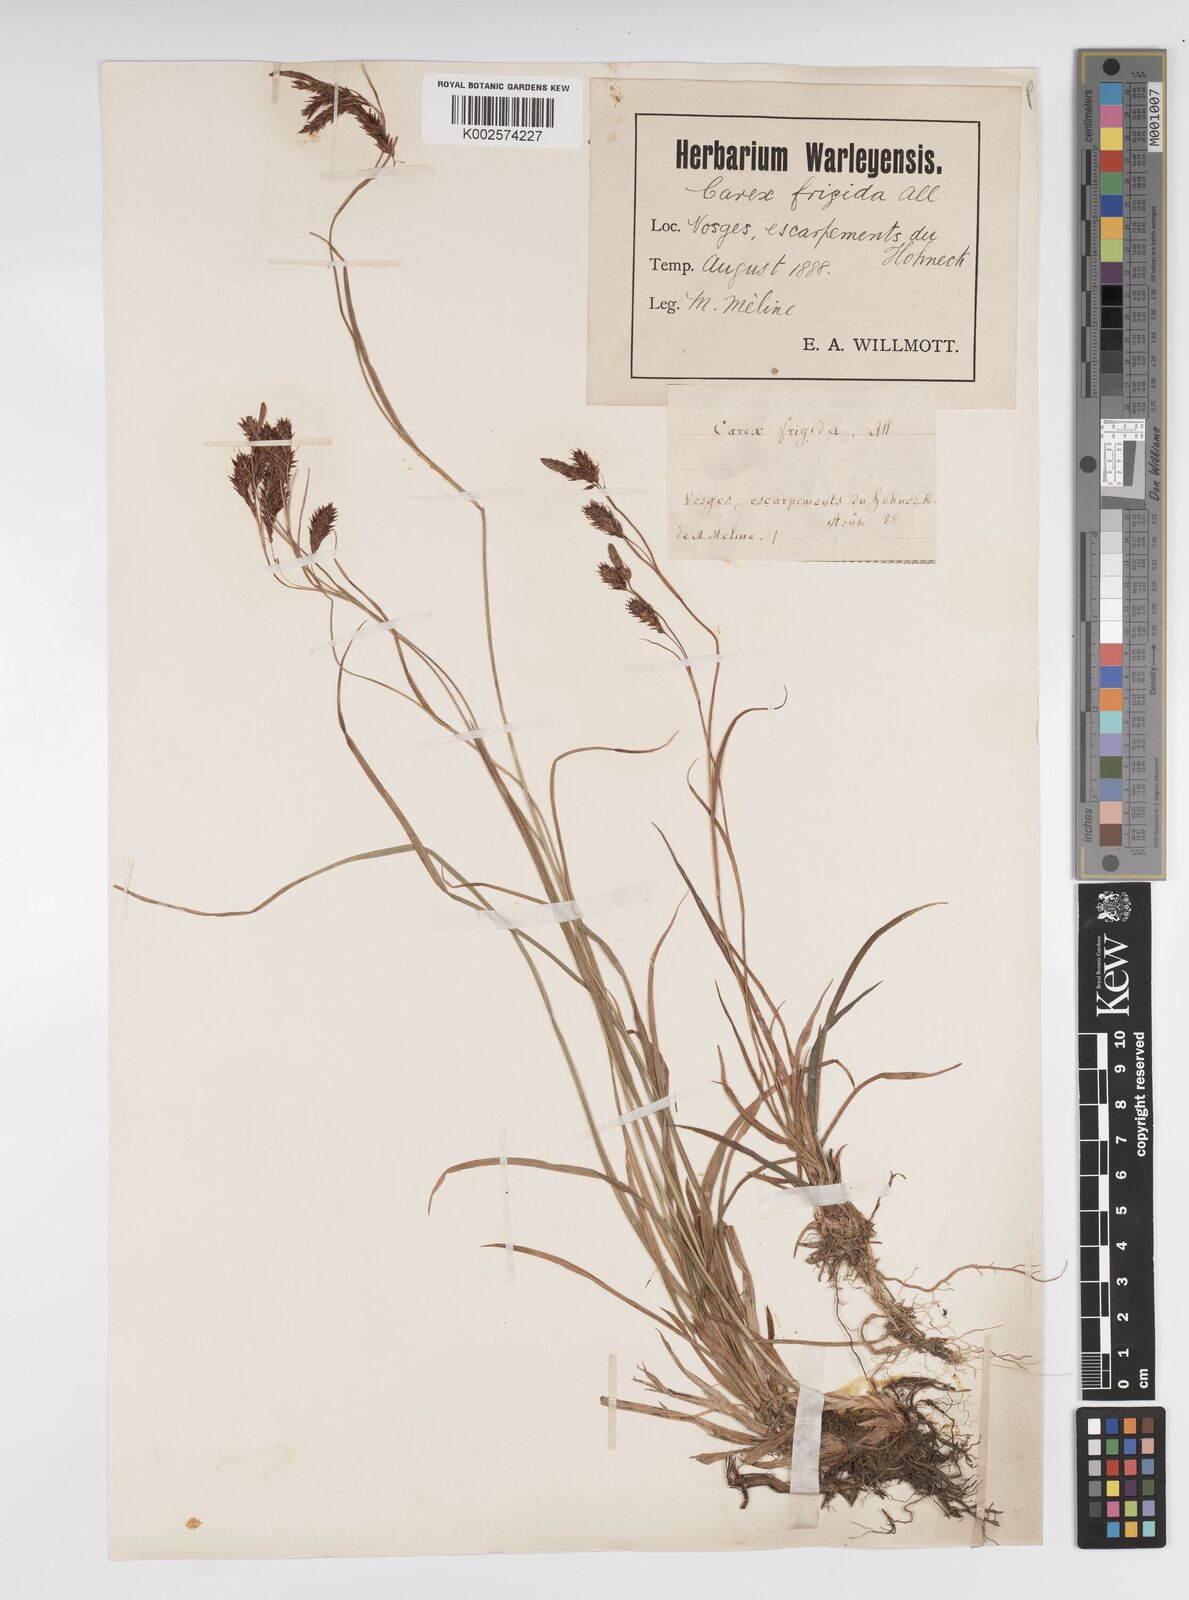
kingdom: Plantae
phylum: Tracheophyta
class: Liliopsida
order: Poales
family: Cyperaceae
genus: Carex
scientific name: Carex frigida
